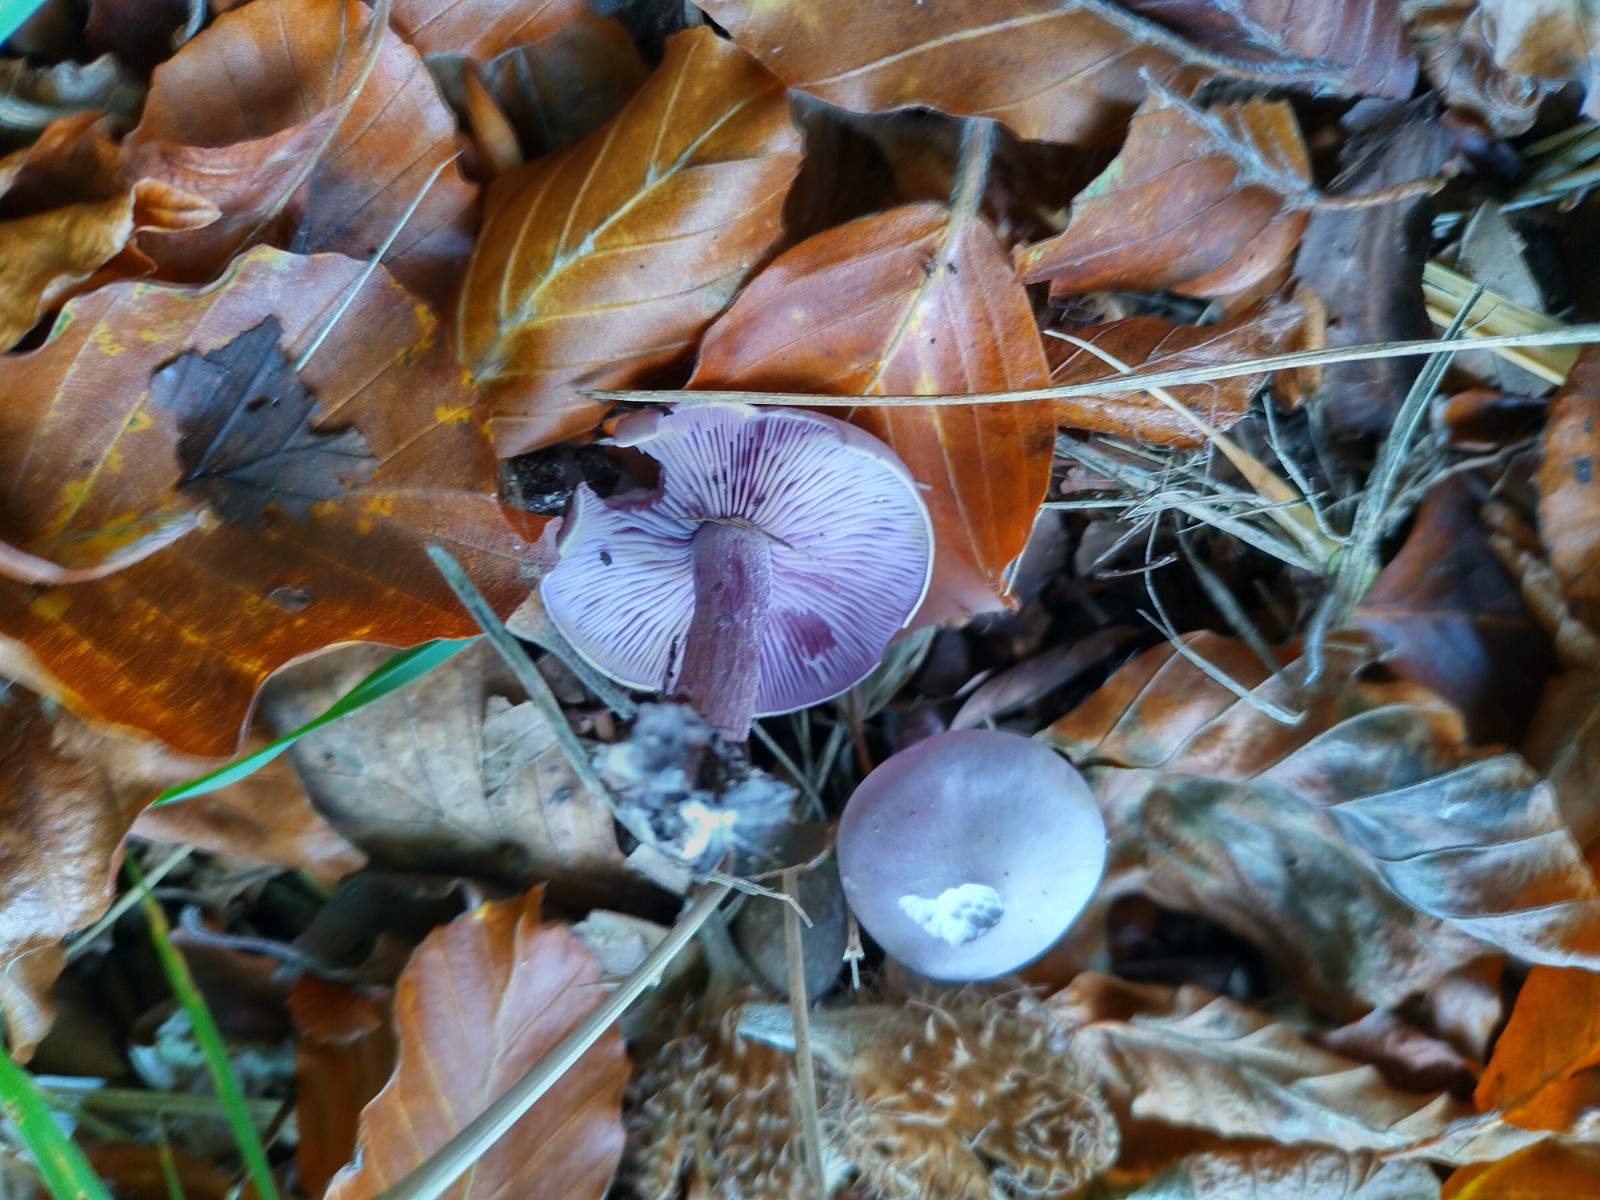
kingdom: Fungi
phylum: Basidiomycota
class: Agaricomycetes
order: Agaricales
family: Tricholomataceae
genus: Lepista
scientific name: Lepista lilacea
